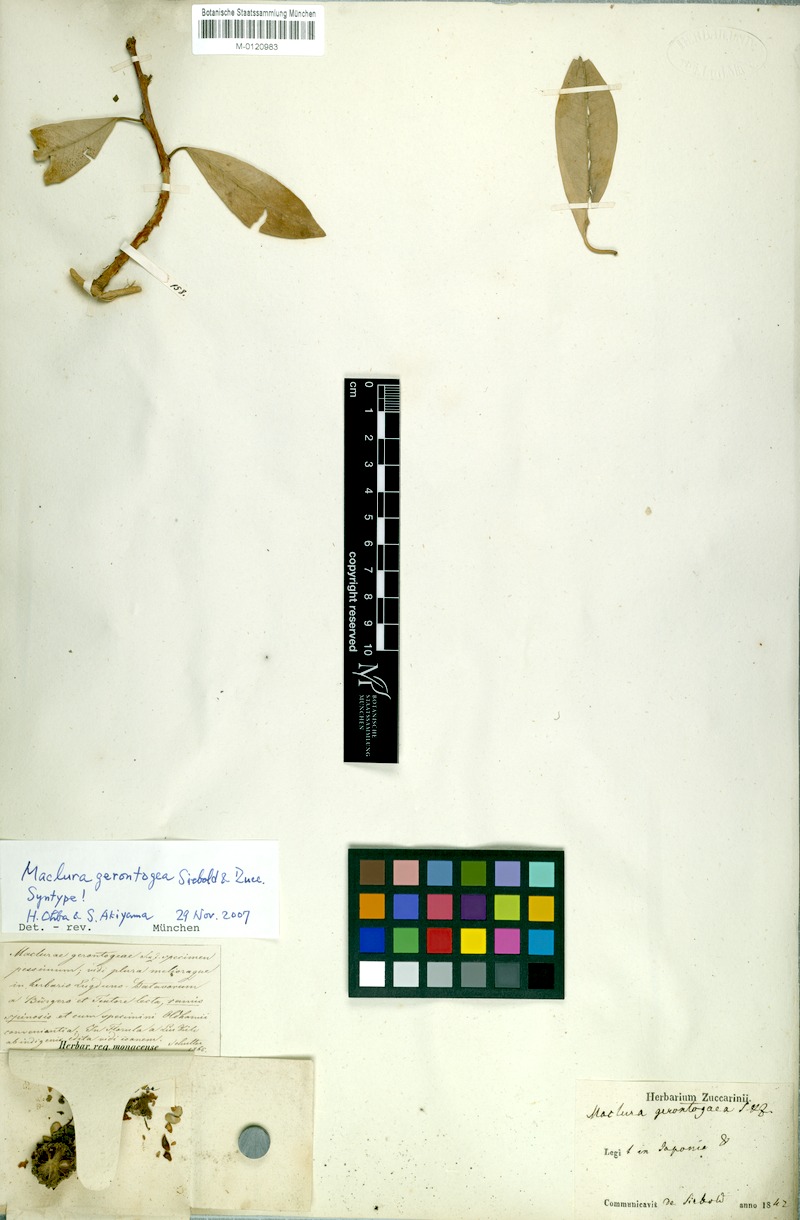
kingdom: Plantae
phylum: Tracheophyta
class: Magnoliopsida
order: Rosales
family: Moraceae
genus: Maclura
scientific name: Maclura cochinchinensis
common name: Cockspurthorn
